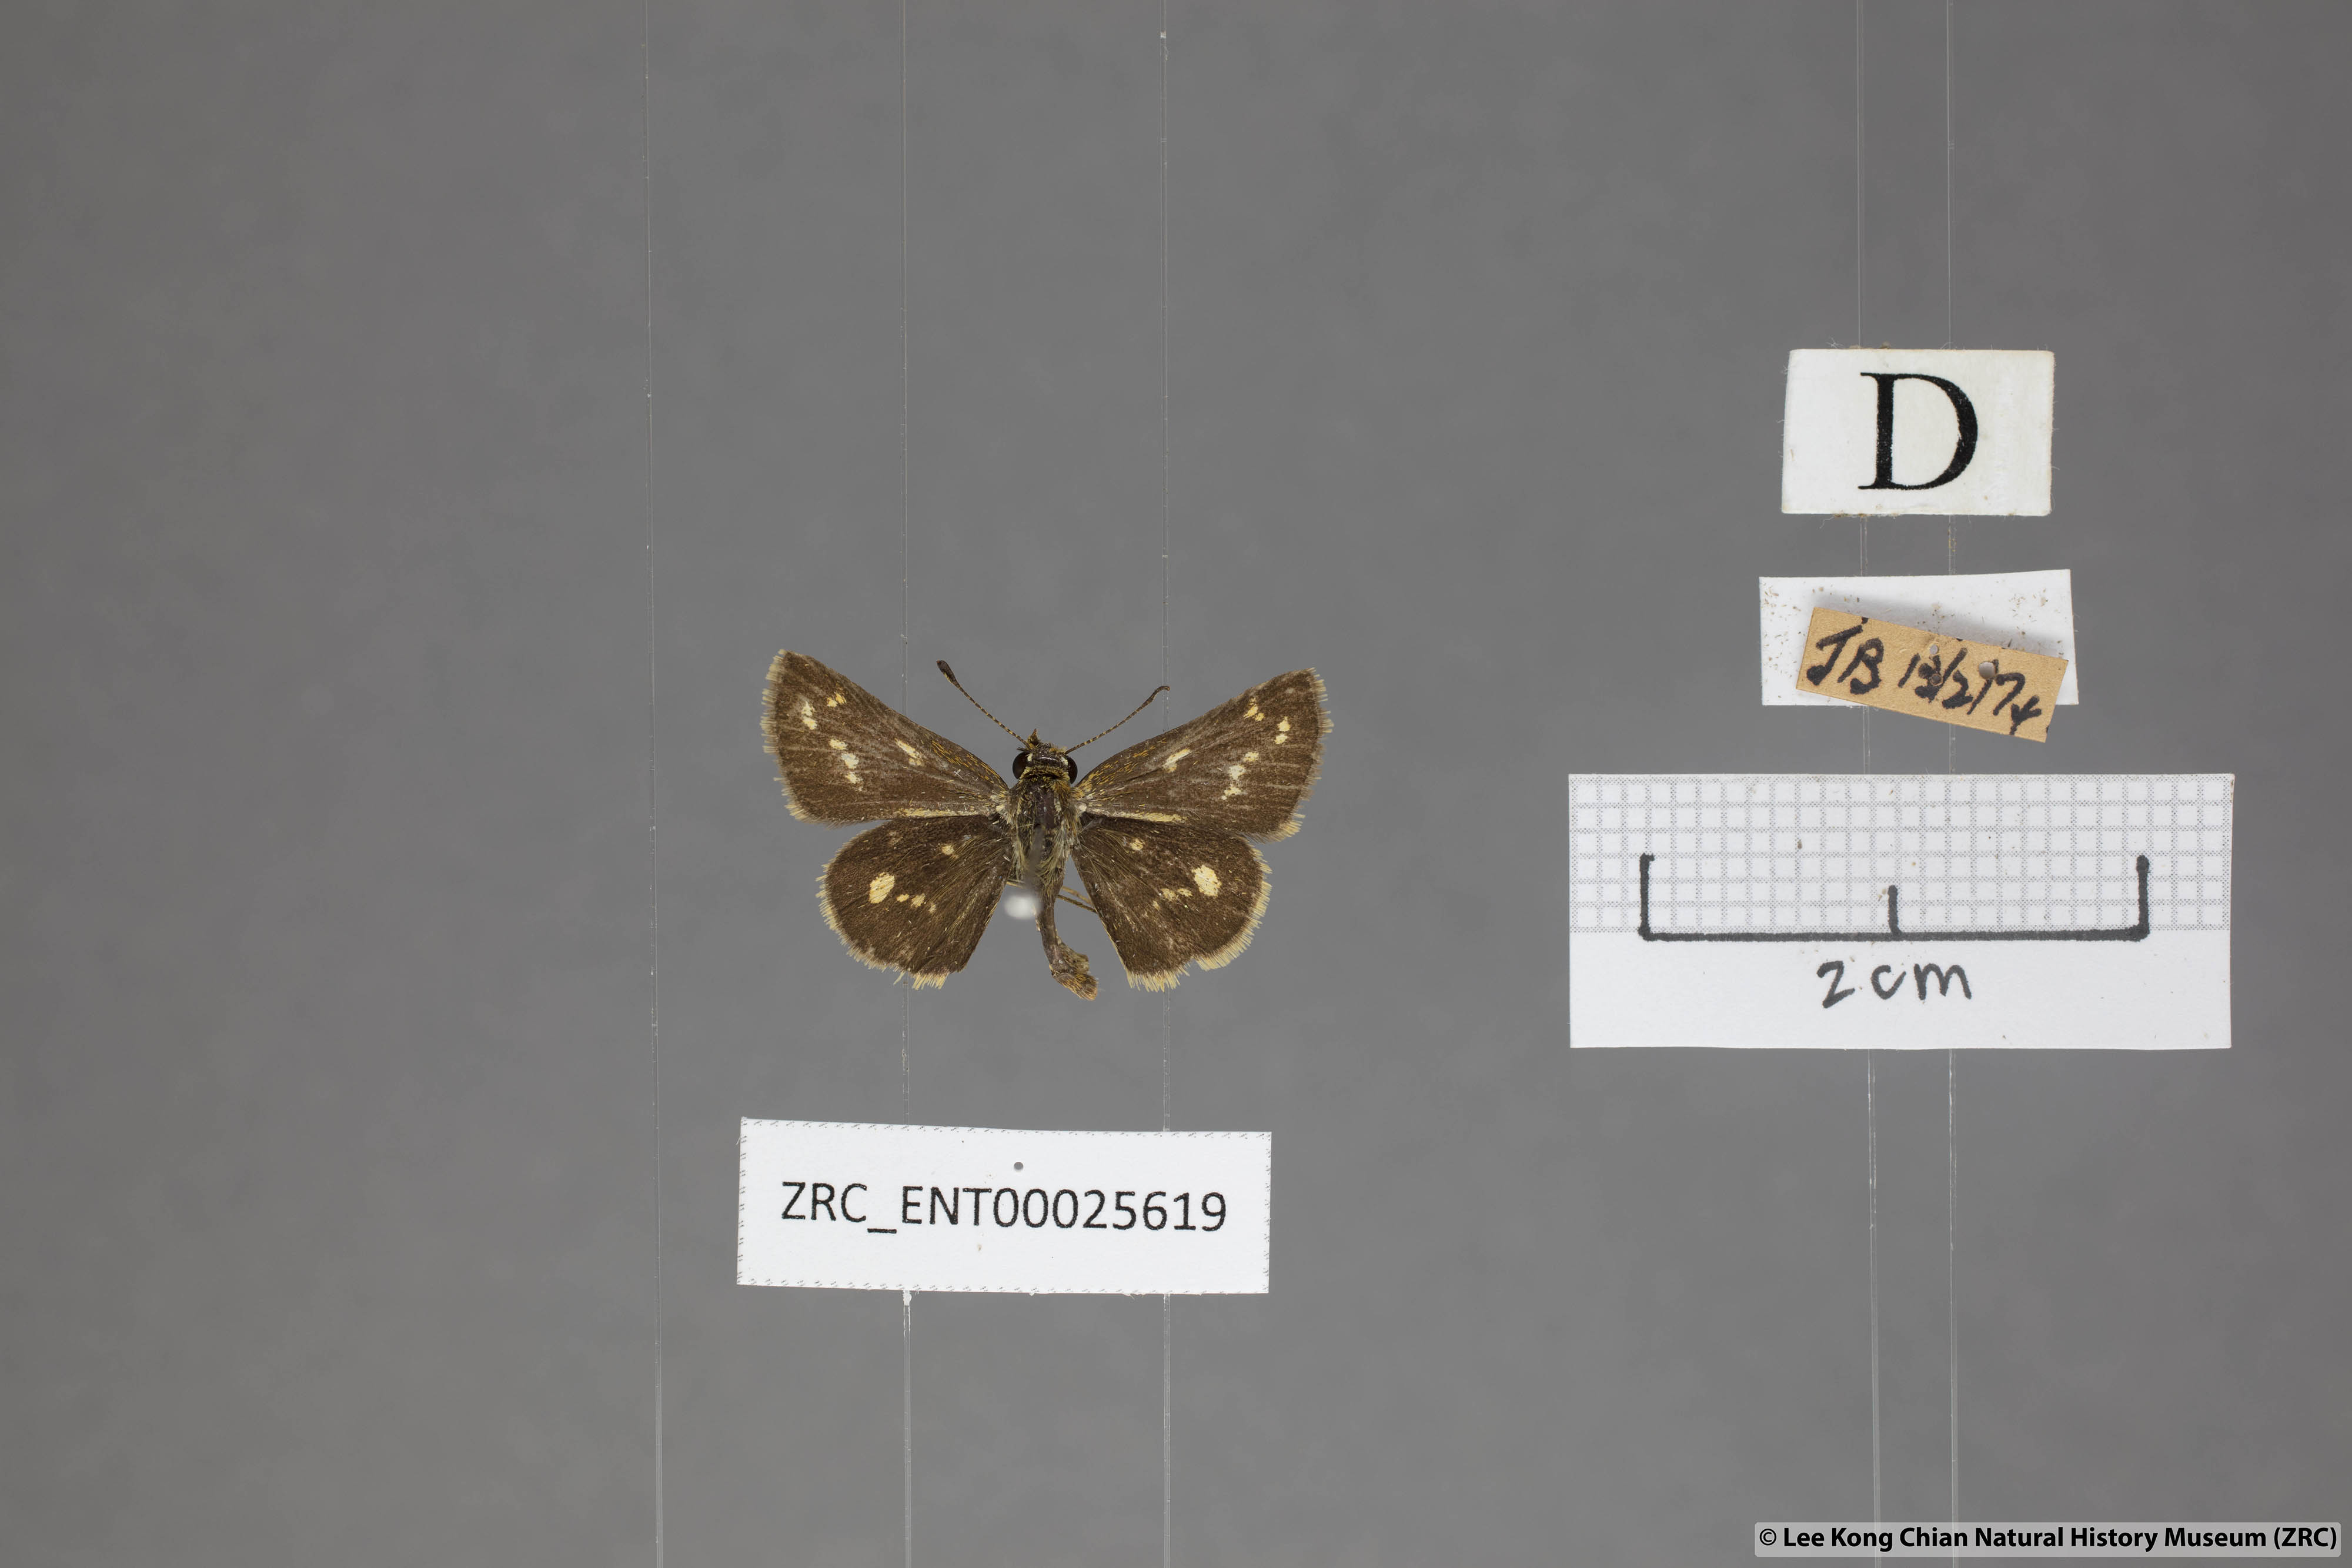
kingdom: Animalia
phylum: Arthropoda
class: Insecta
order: Lepidoptera
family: Hesperiidae
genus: Taractrocera
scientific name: Taractrocera ardonia
